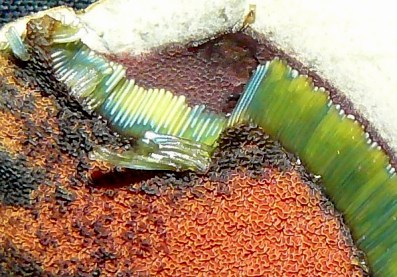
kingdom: Fungi
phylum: Basidiomycota
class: Agaricomycetes
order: Boletales
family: Boletaceae
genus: Suillellus
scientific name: Suillellus luridus
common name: netstokket indigorørhat
